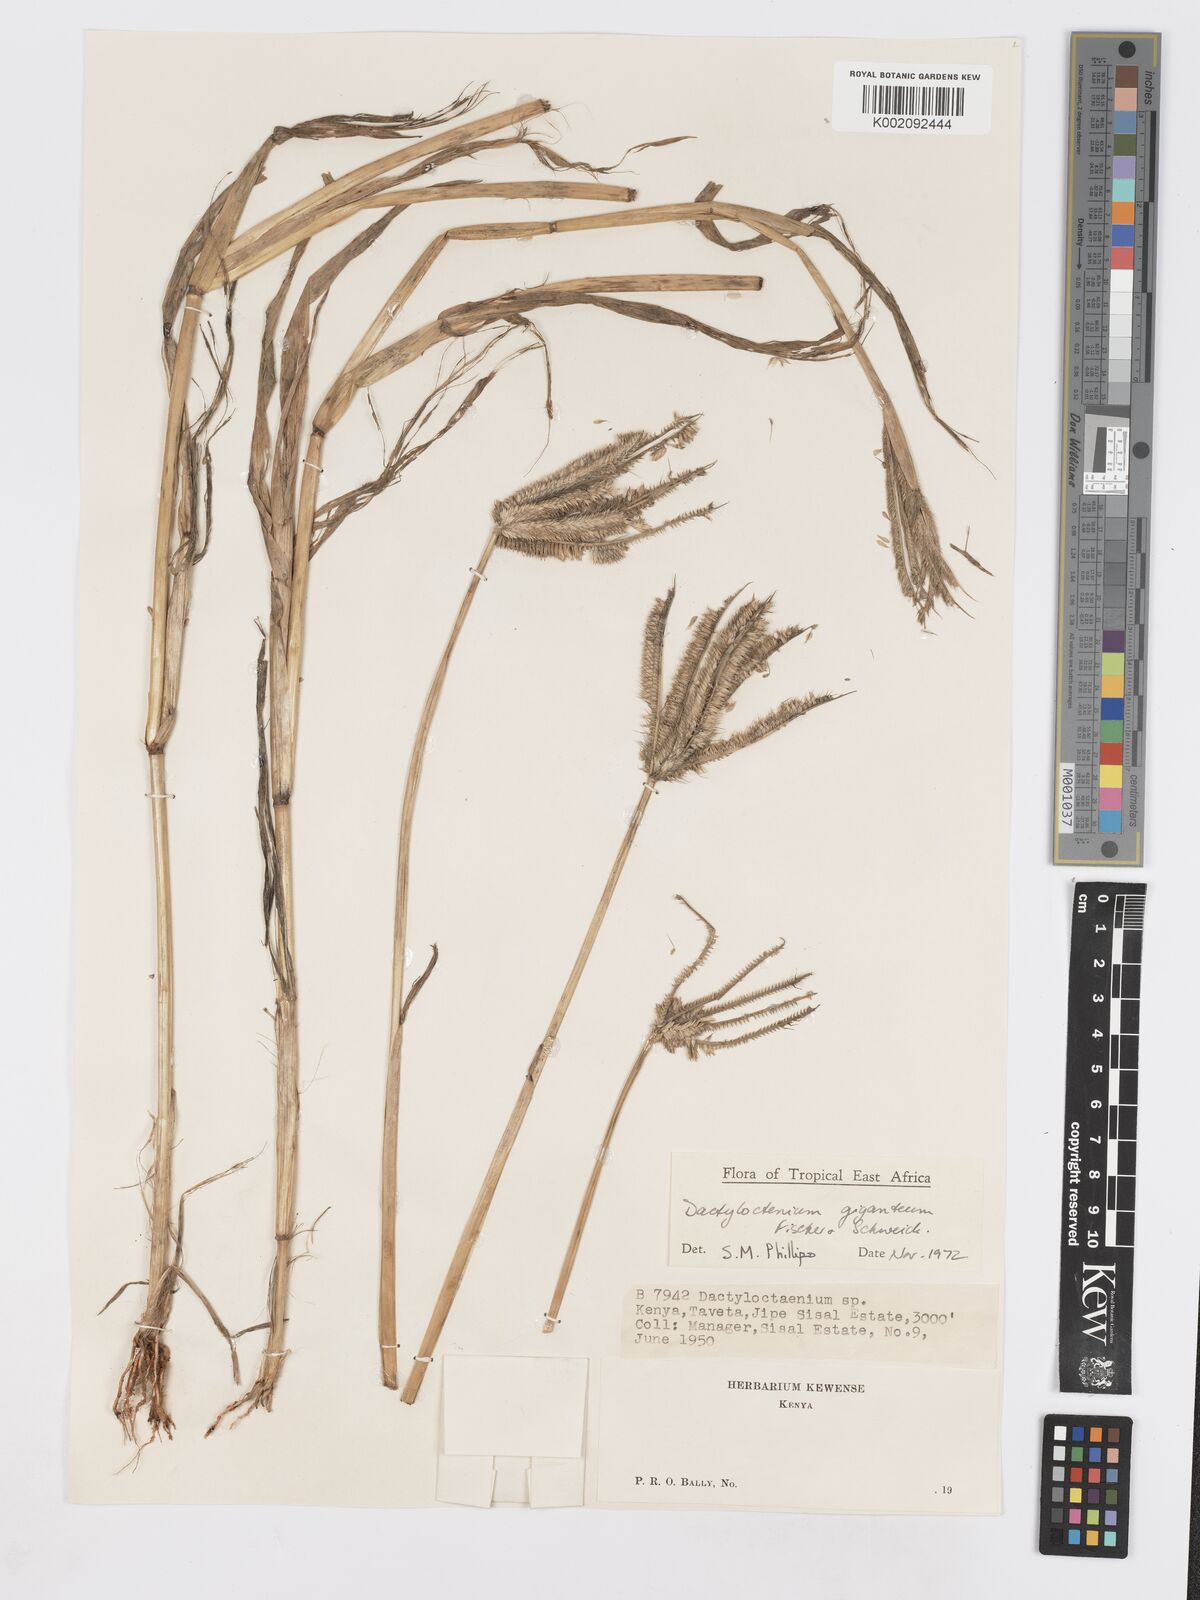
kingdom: Plantae
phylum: Tracheophyta
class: Liliopsida
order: Poales
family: Poaceae
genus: Dactyloctenium
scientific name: Dactyloctenium giganteum
